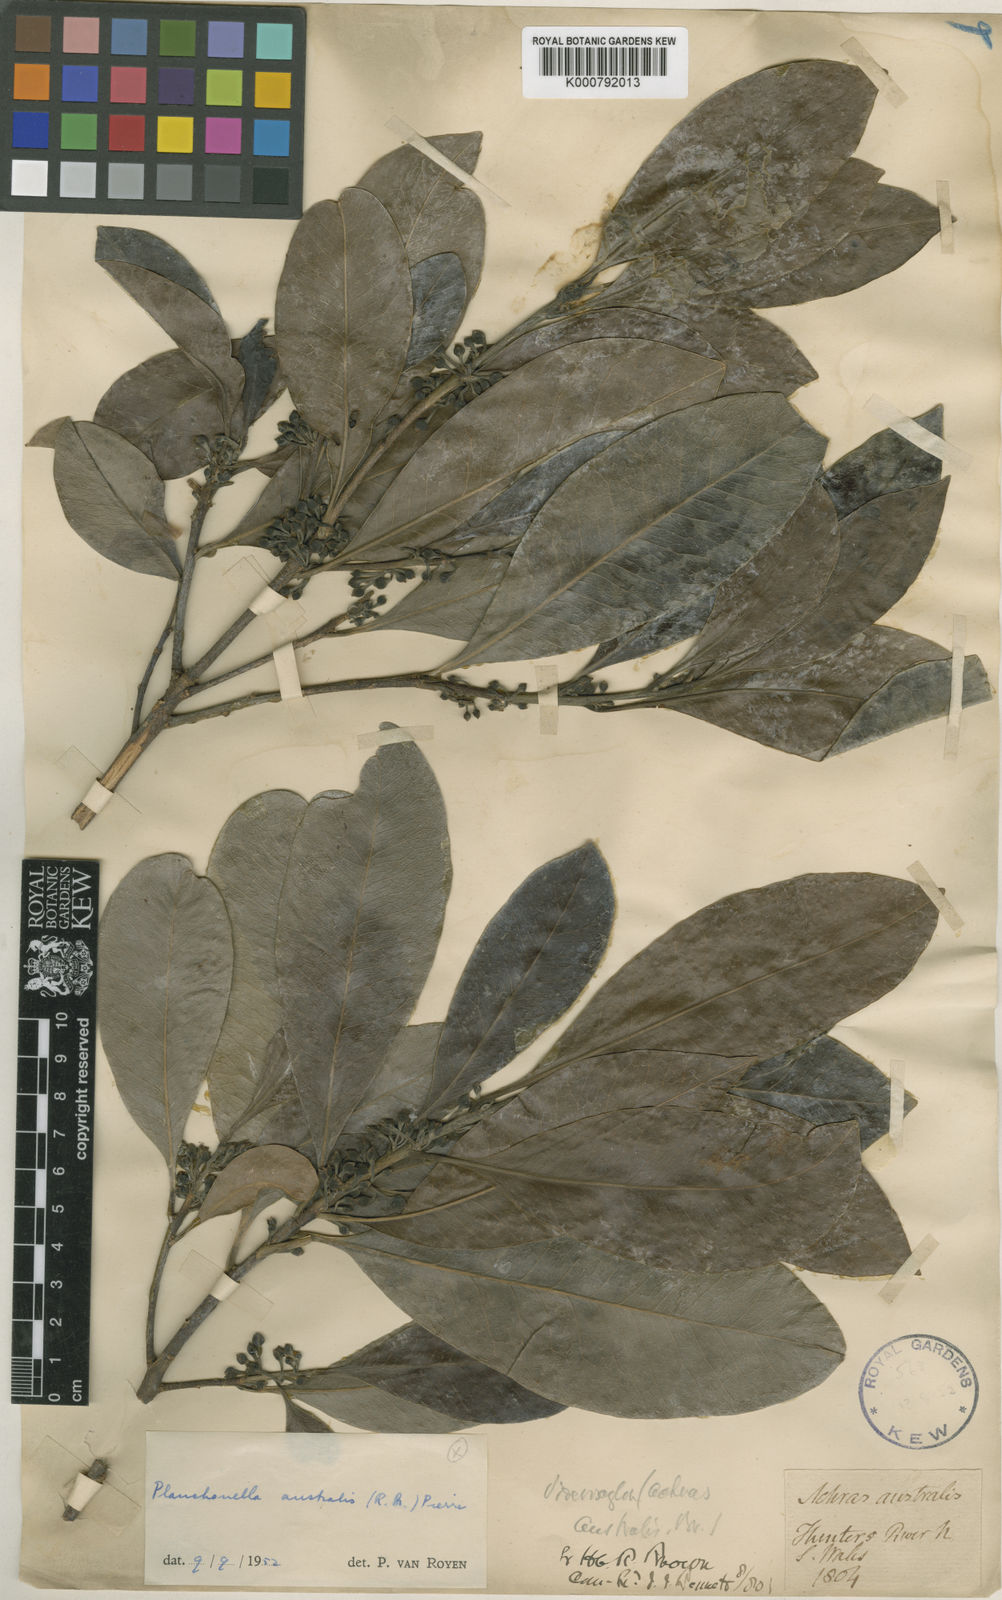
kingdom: Plantae
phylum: Tracheophyta
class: Magnoliopsida
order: Ericales
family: Sapotaceae
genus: Planchonella
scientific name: Planchonella australis
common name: Black apple
